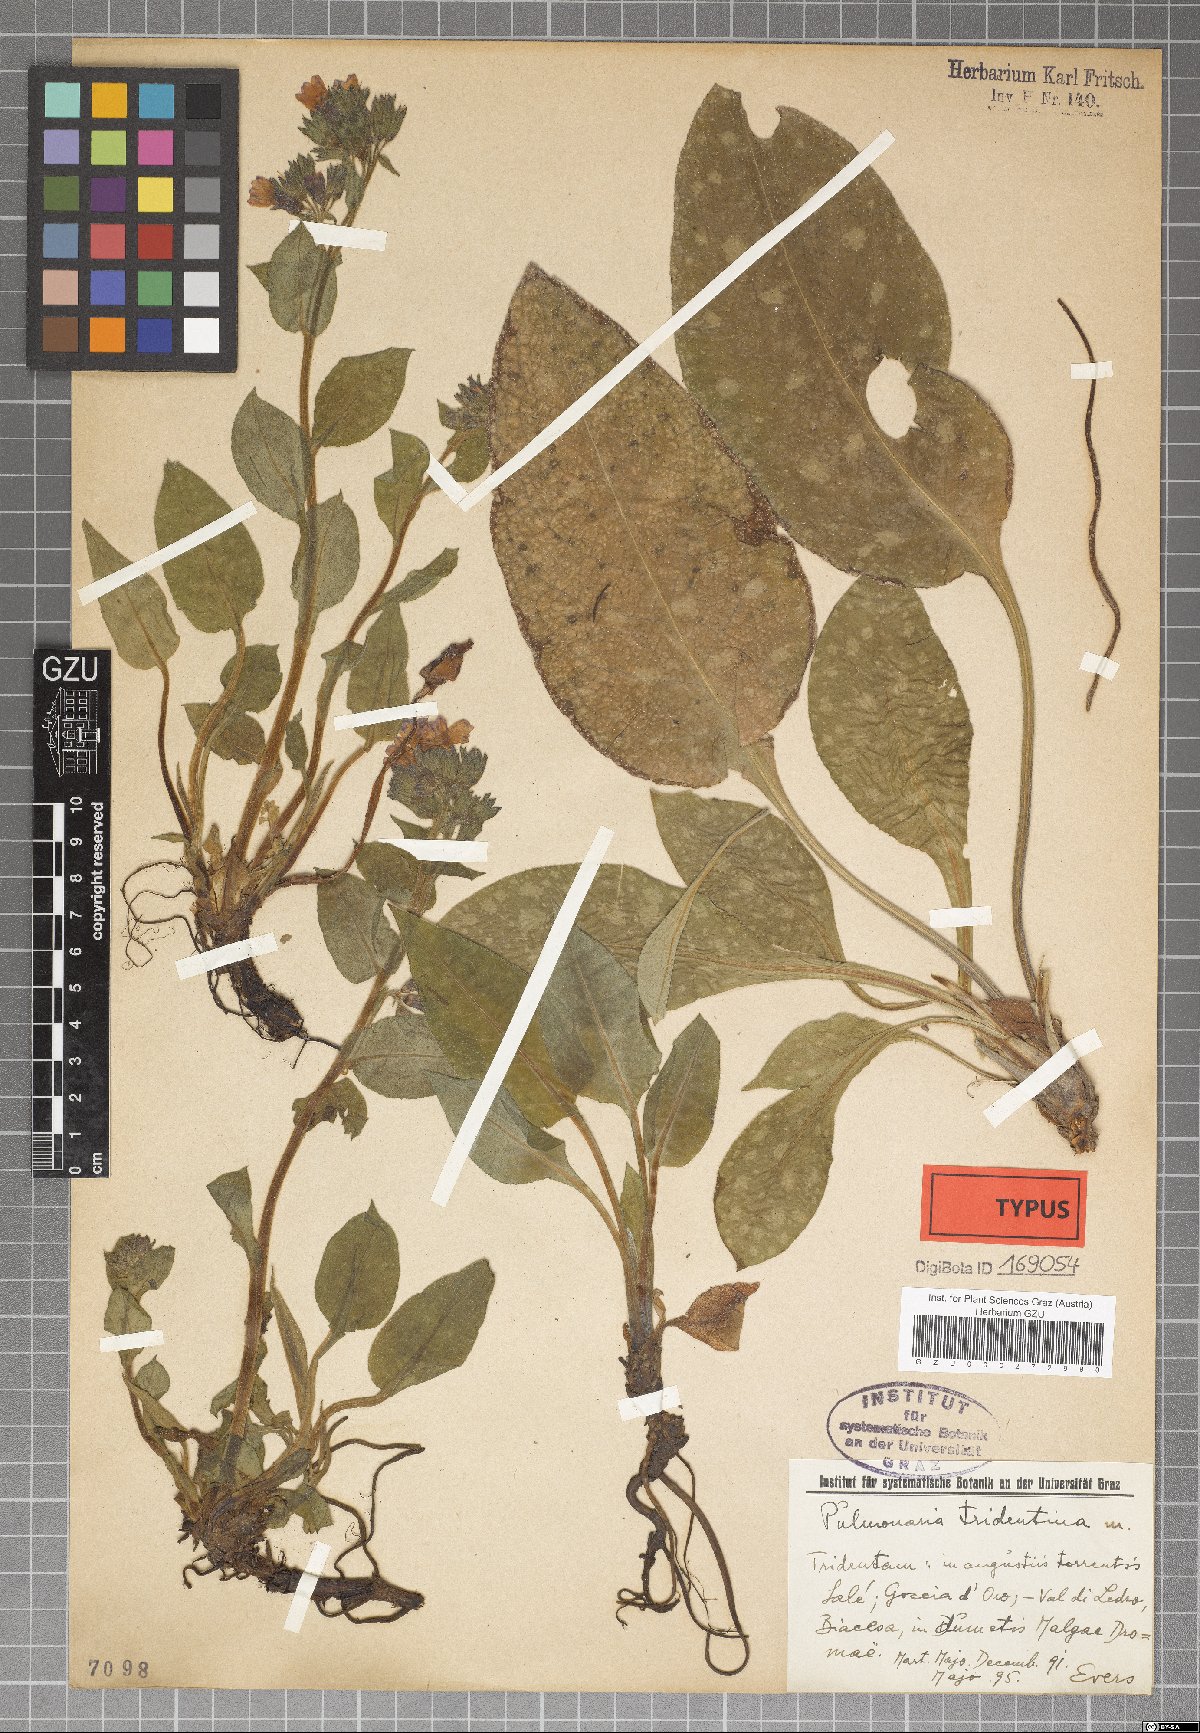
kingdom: Plantae
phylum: Tracheophyta
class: Magnoliopsida
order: Boraginales
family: Boraginaceae
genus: Pulmonaria
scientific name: Pulmonaria officinalis
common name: Lungwort
